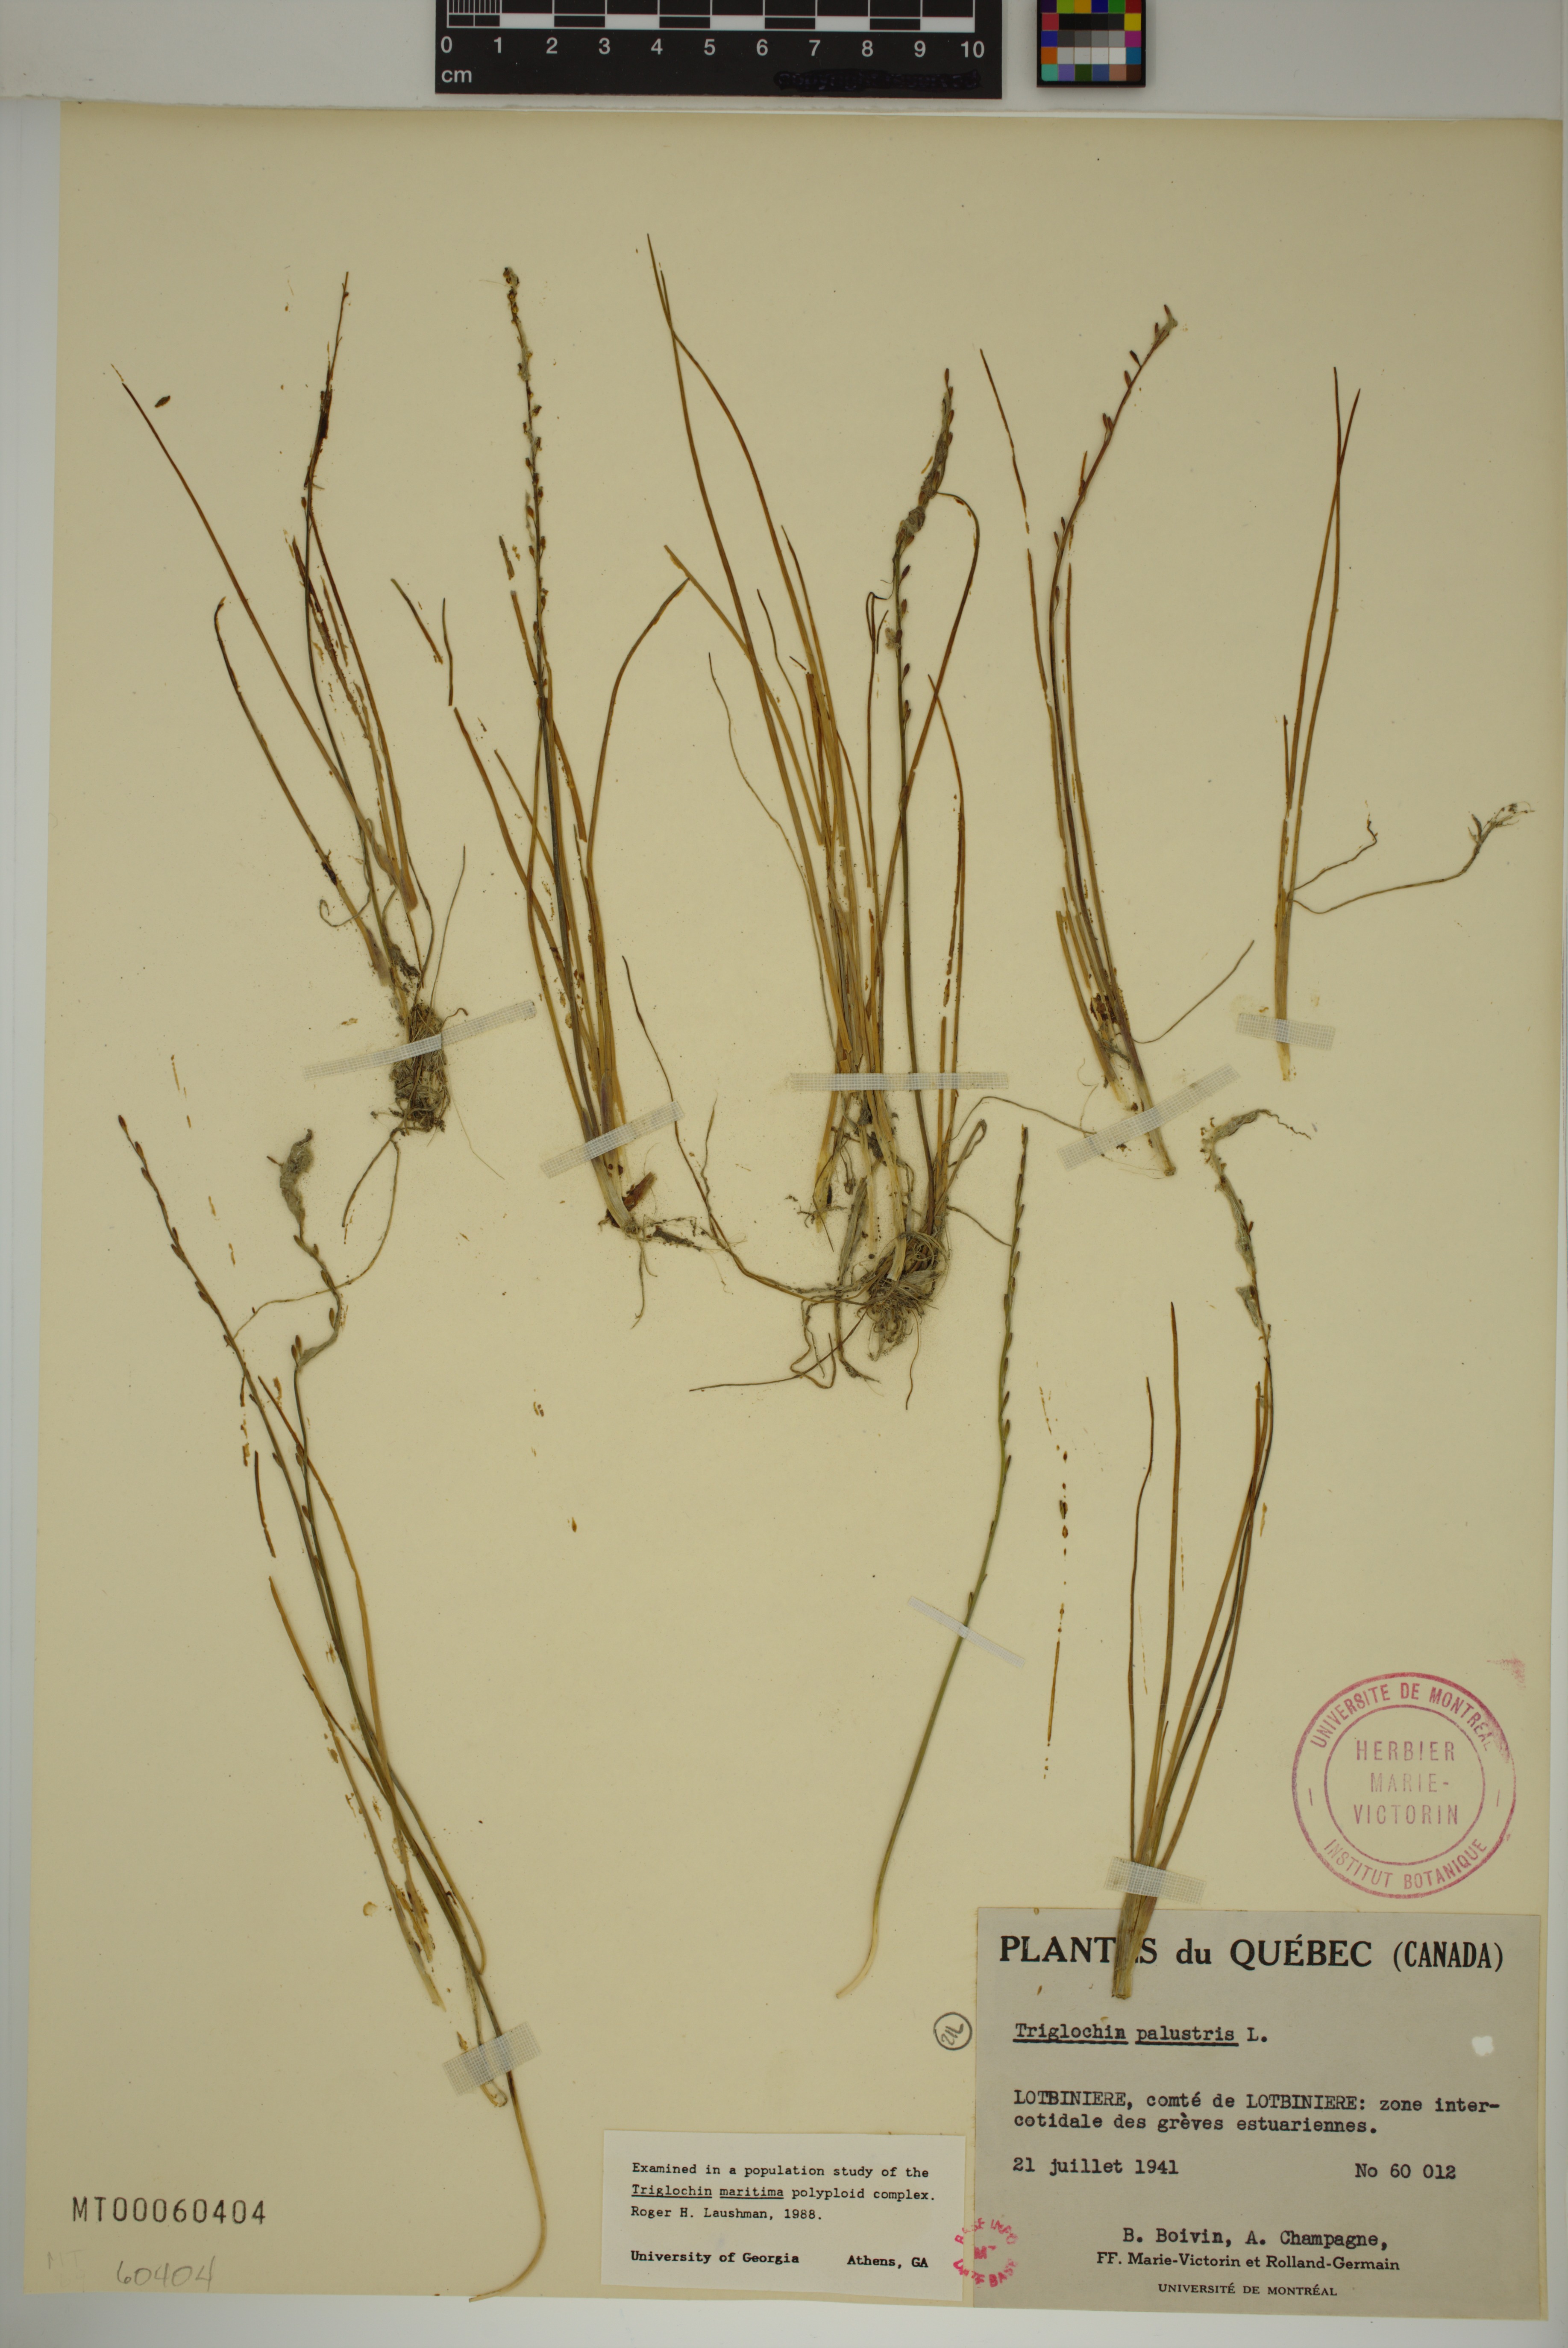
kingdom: Plantae
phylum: Tracheophyta
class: Liliopsida
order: Alismatales
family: Juncaginaceae
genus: Triglochin
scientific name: Triglochin palustris
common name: Marsh arrowgrass
